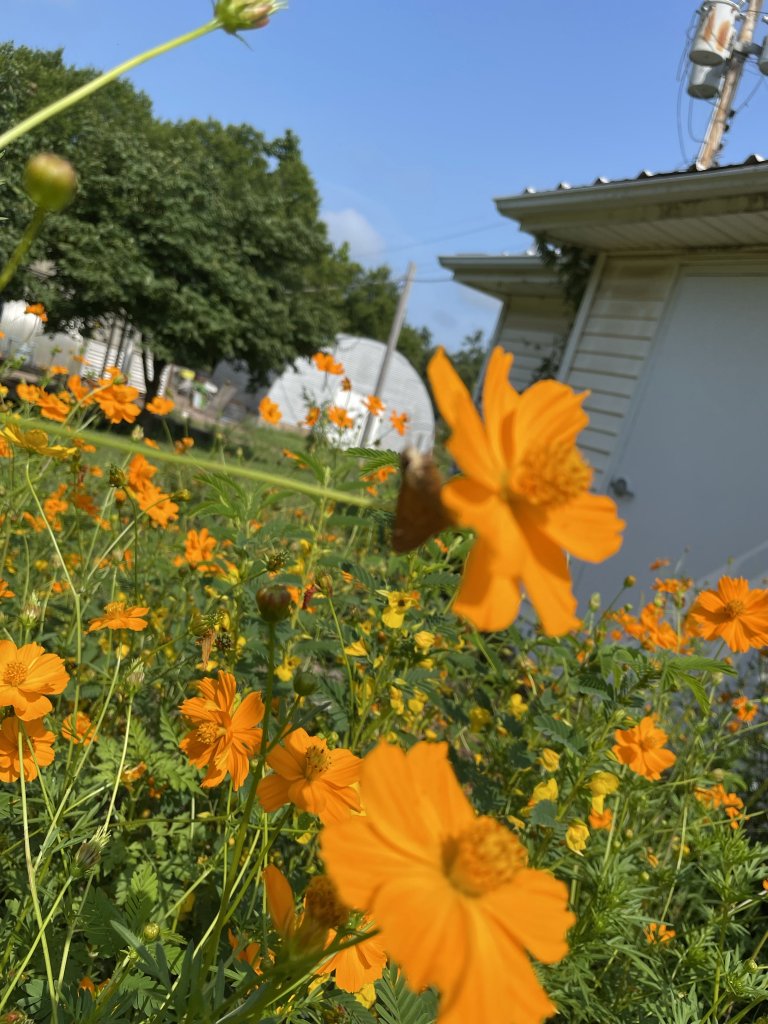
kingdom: Animalia
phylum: Arthropoda
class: Insecta
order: Lepidoptera
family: Hesperiidae
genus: Atalopedes
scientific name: Atalopedes campestris
